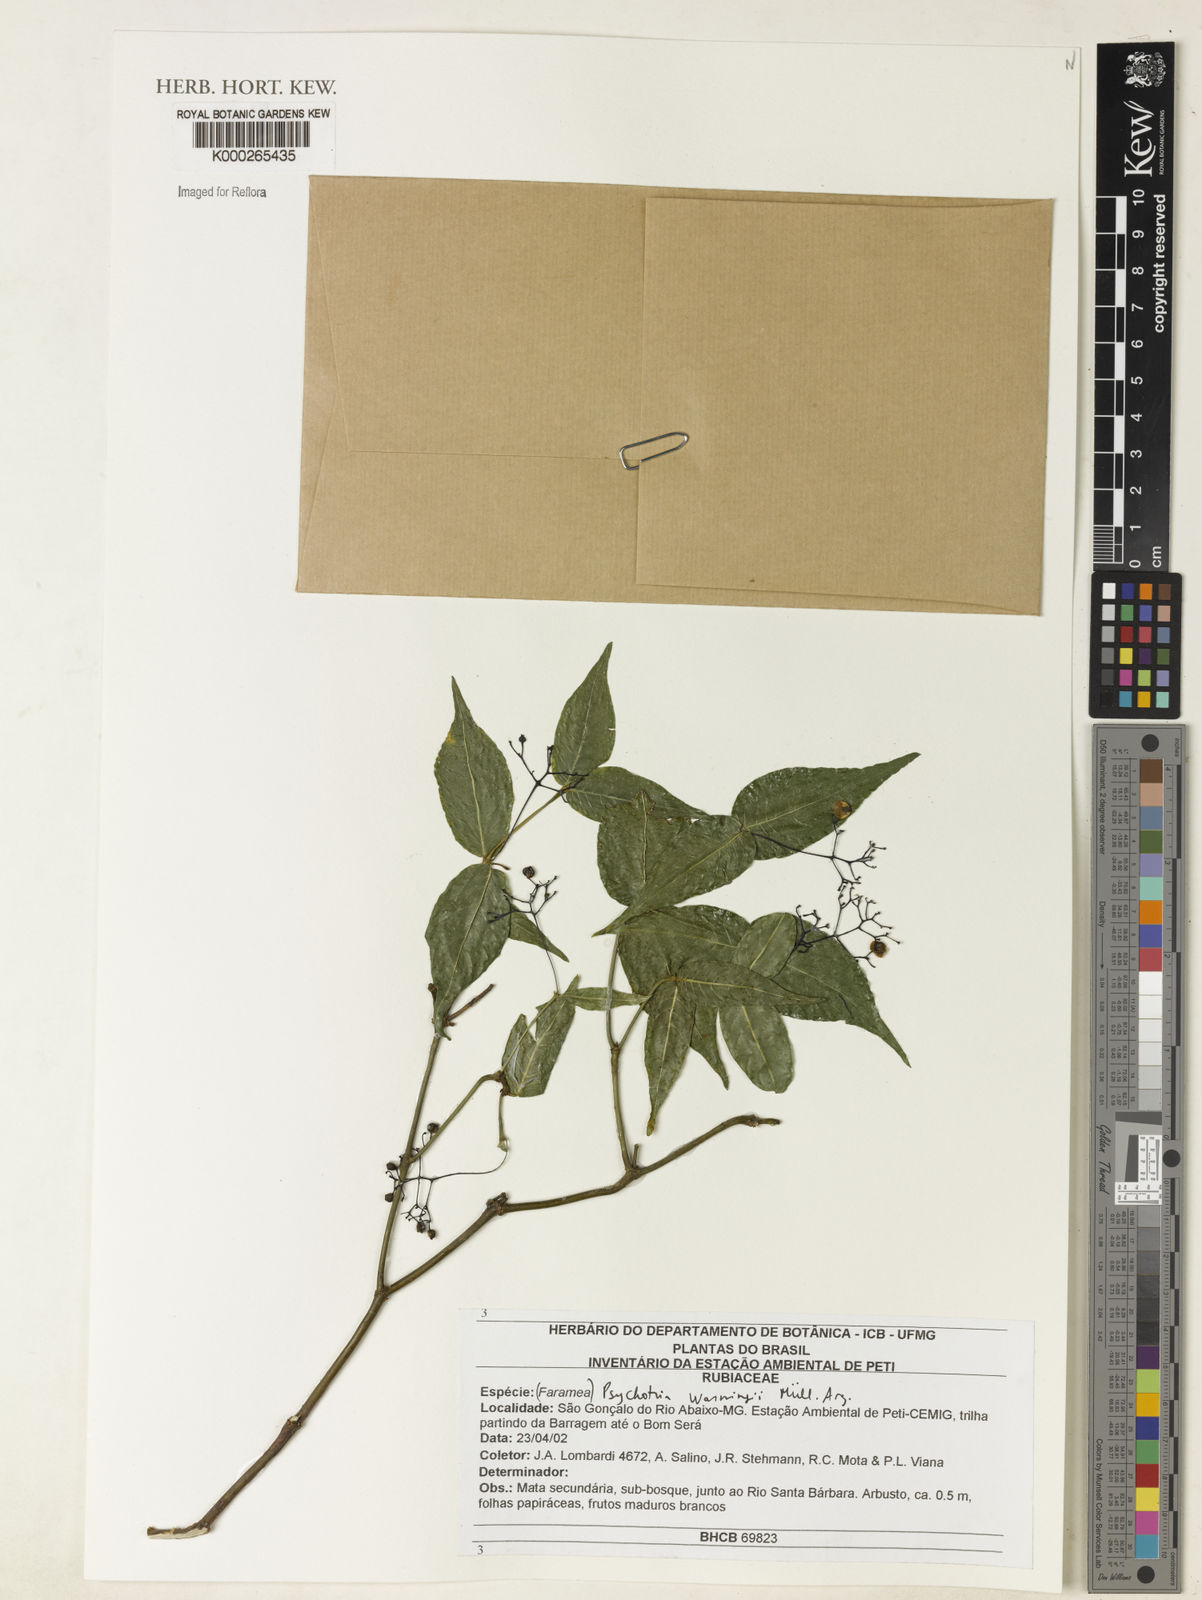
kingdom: Plantae
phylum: Tracheophyta
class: Magnoliopsida
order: Gentianales
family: Rubiaceae
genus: Psychotria
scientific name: Psychotria
